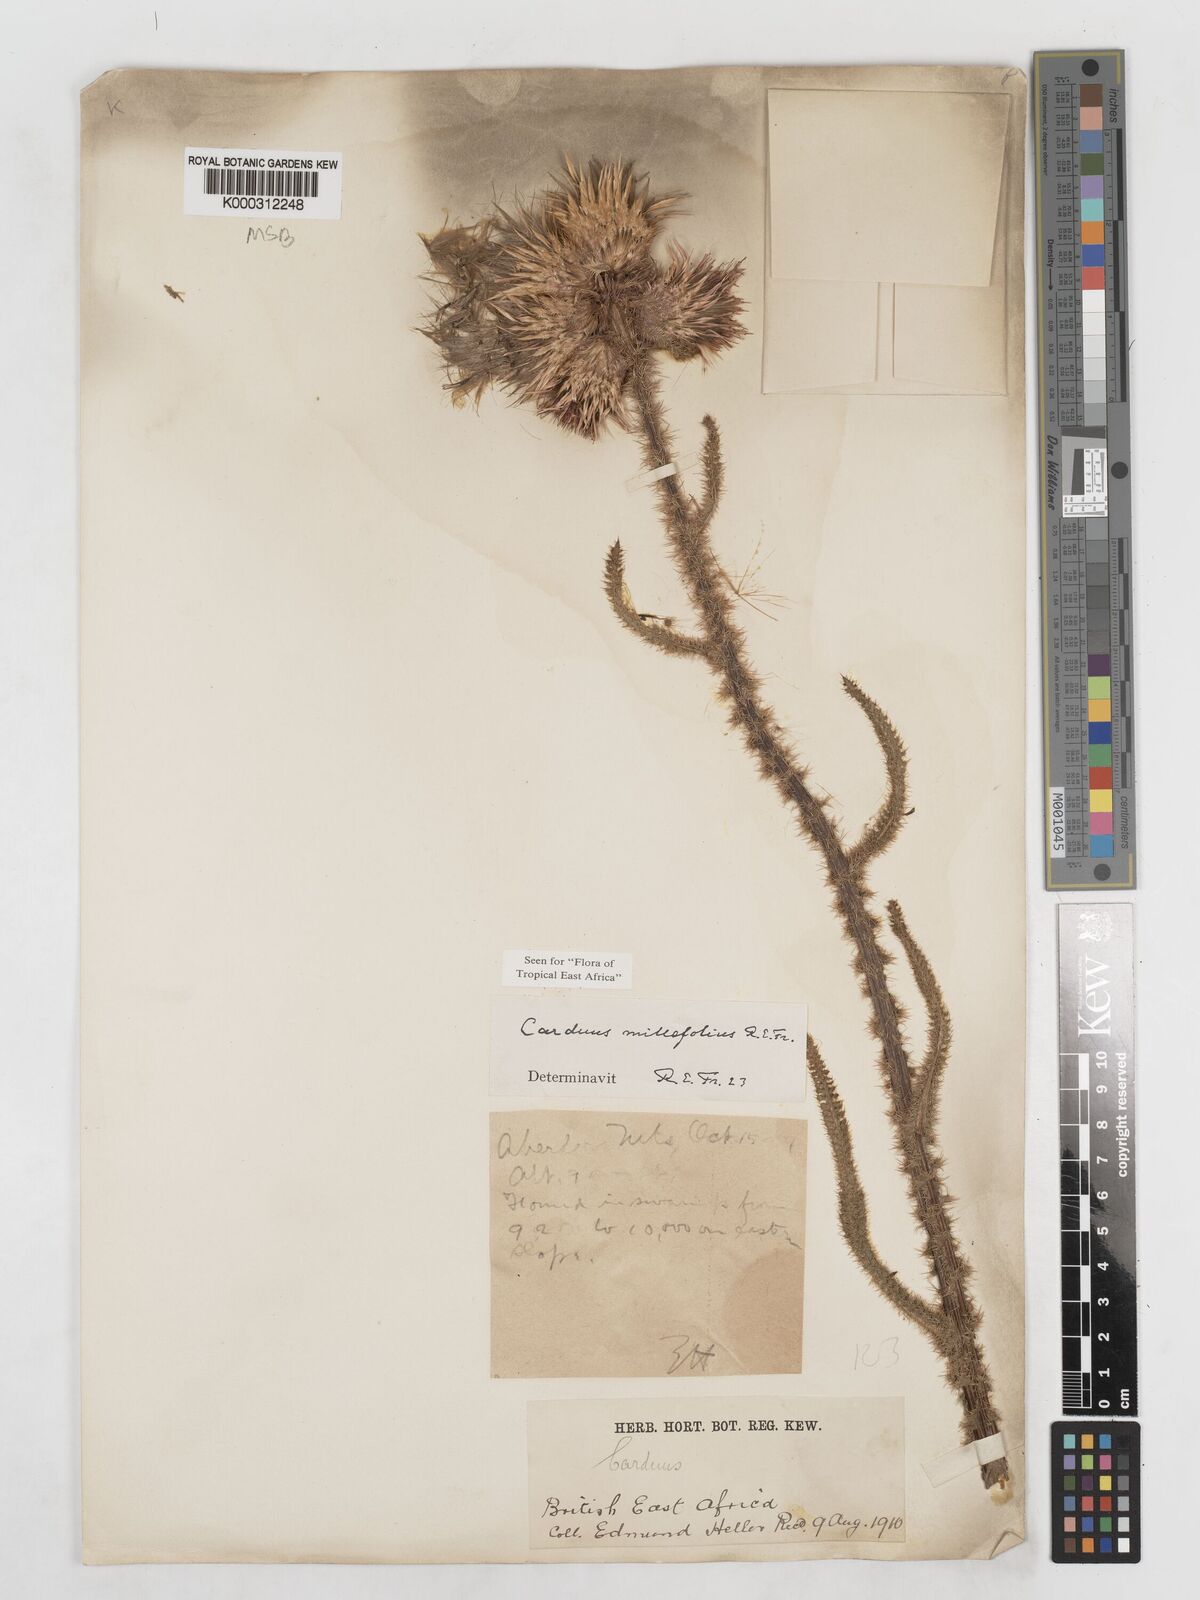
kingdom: Plantae
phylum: Tracheophyta
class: Magnoliopsida
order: Asterales
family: Asteraceae
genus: Carduus
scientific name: Carduus millefolius
